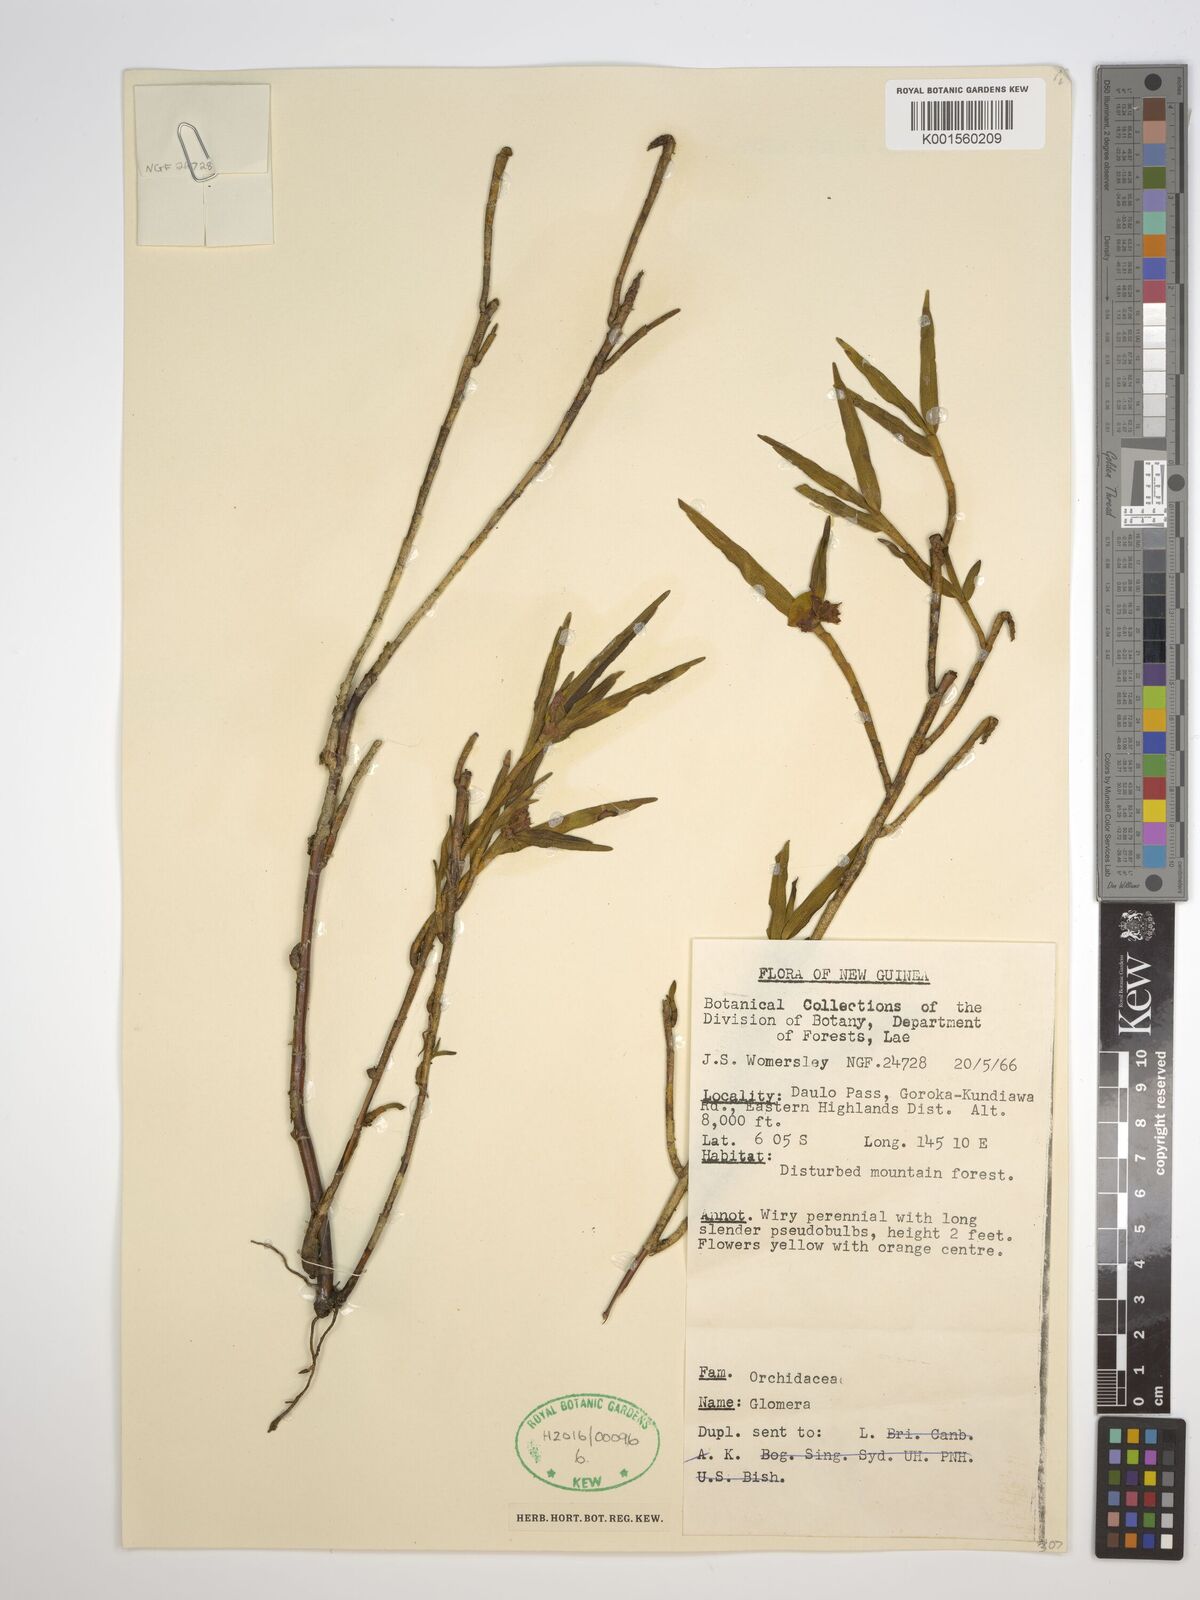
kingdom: Plantae
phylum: Tracheophyta
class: Liliopsida
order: Asparagales
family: Orchidaceae
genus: Glomera
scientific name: Glomera
